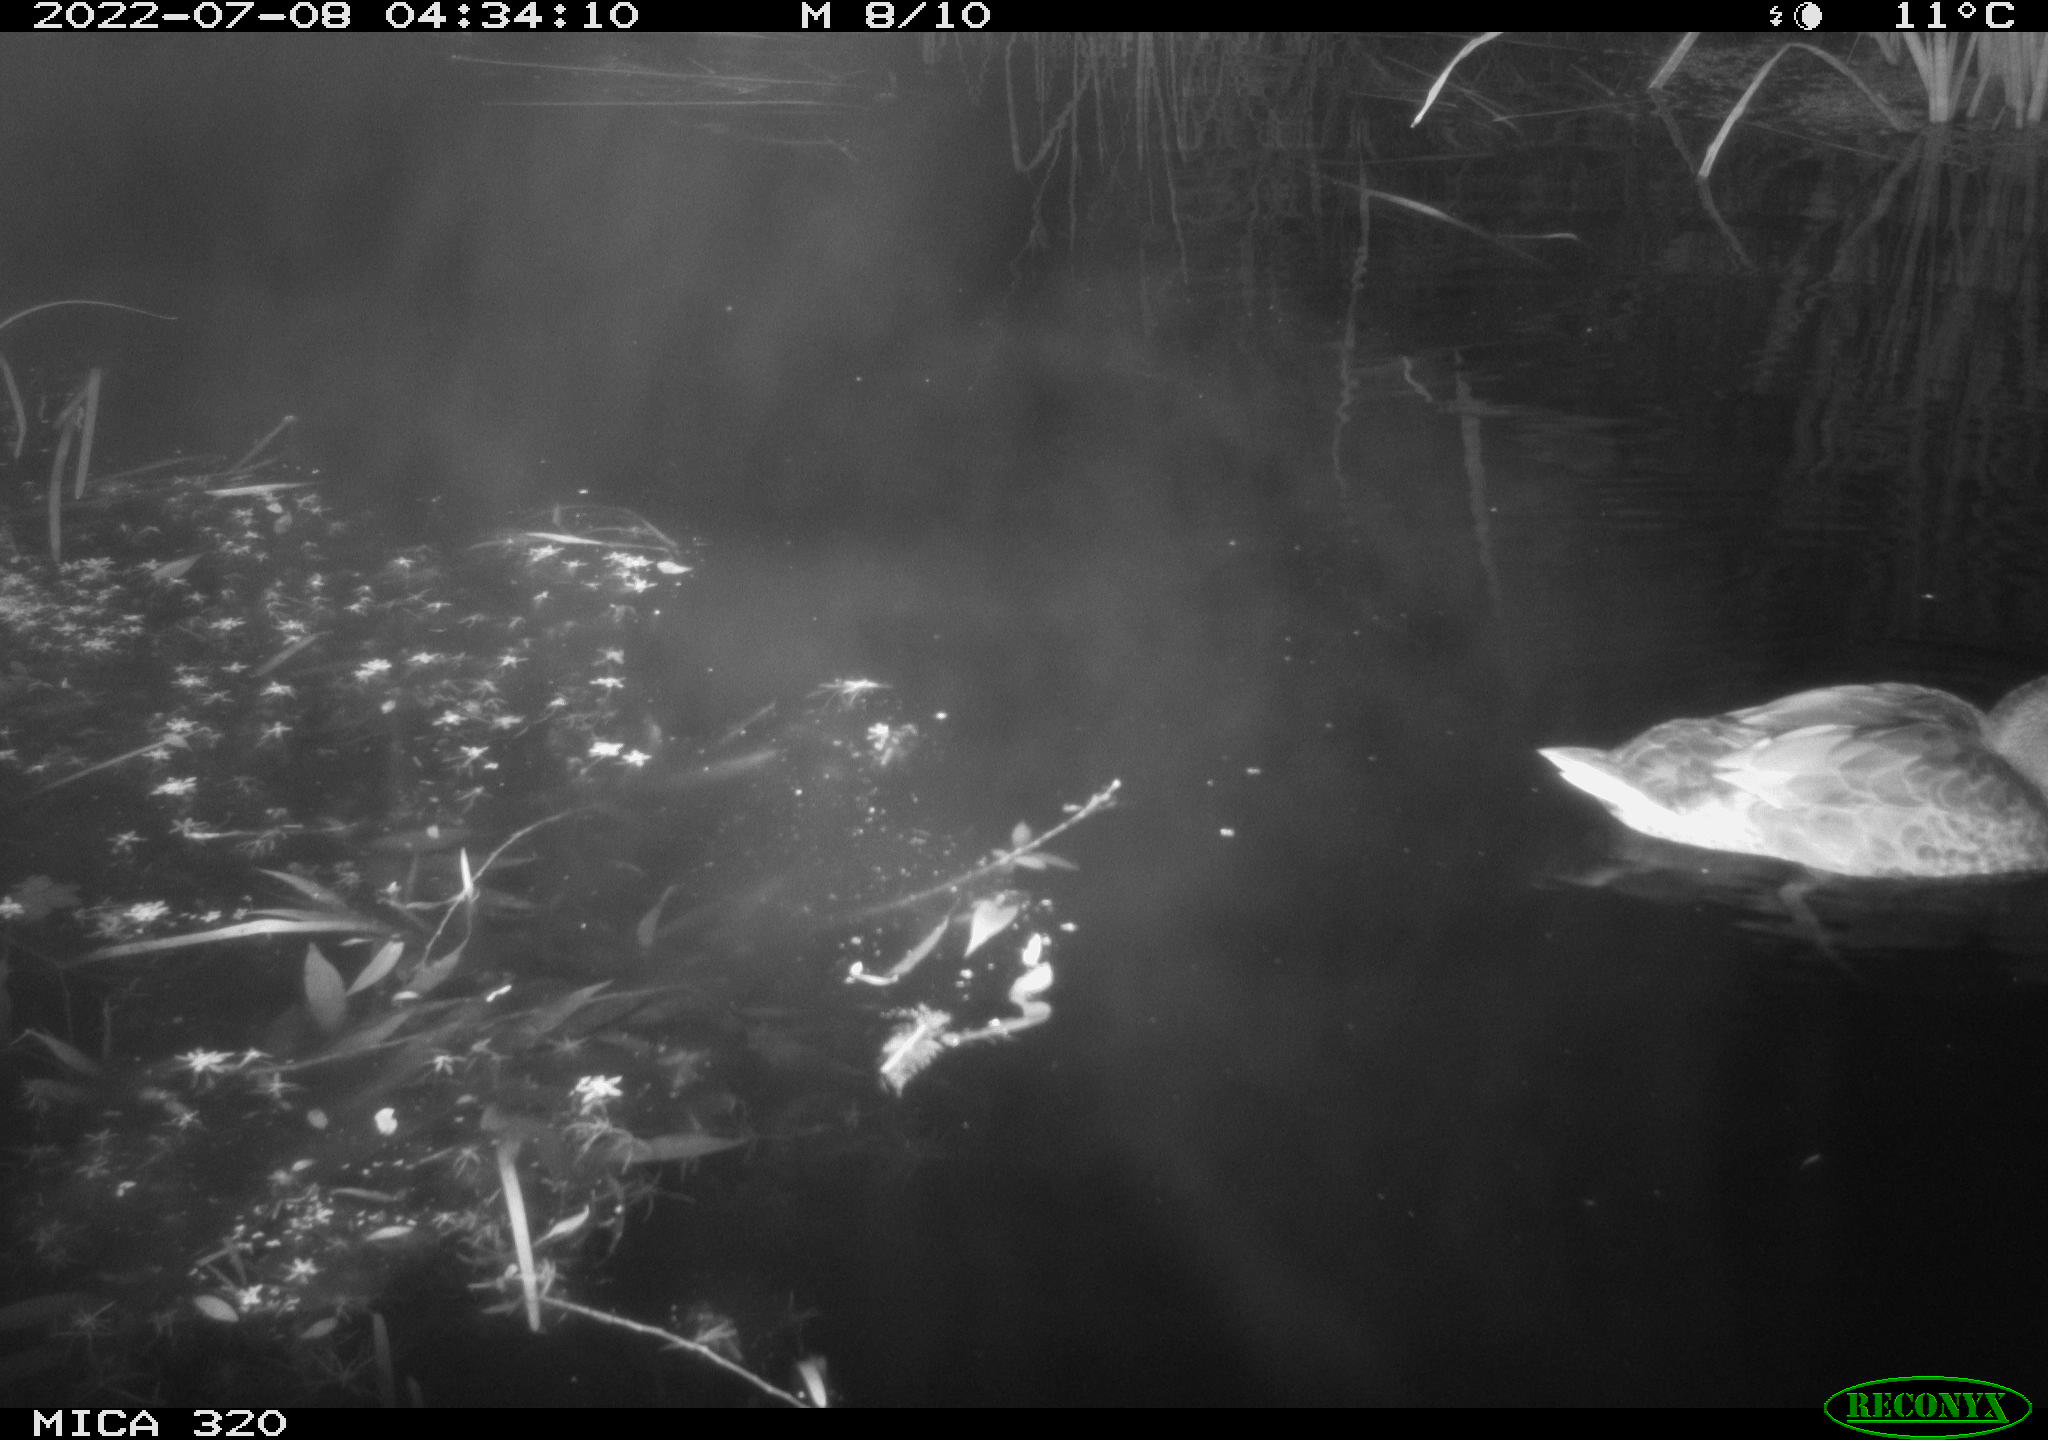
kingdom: Animalia
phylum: Chordata
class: Aves
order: Anseriformes
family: Anatidae
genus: Anas
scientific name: Anas platyrhynchos
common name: Mallard
